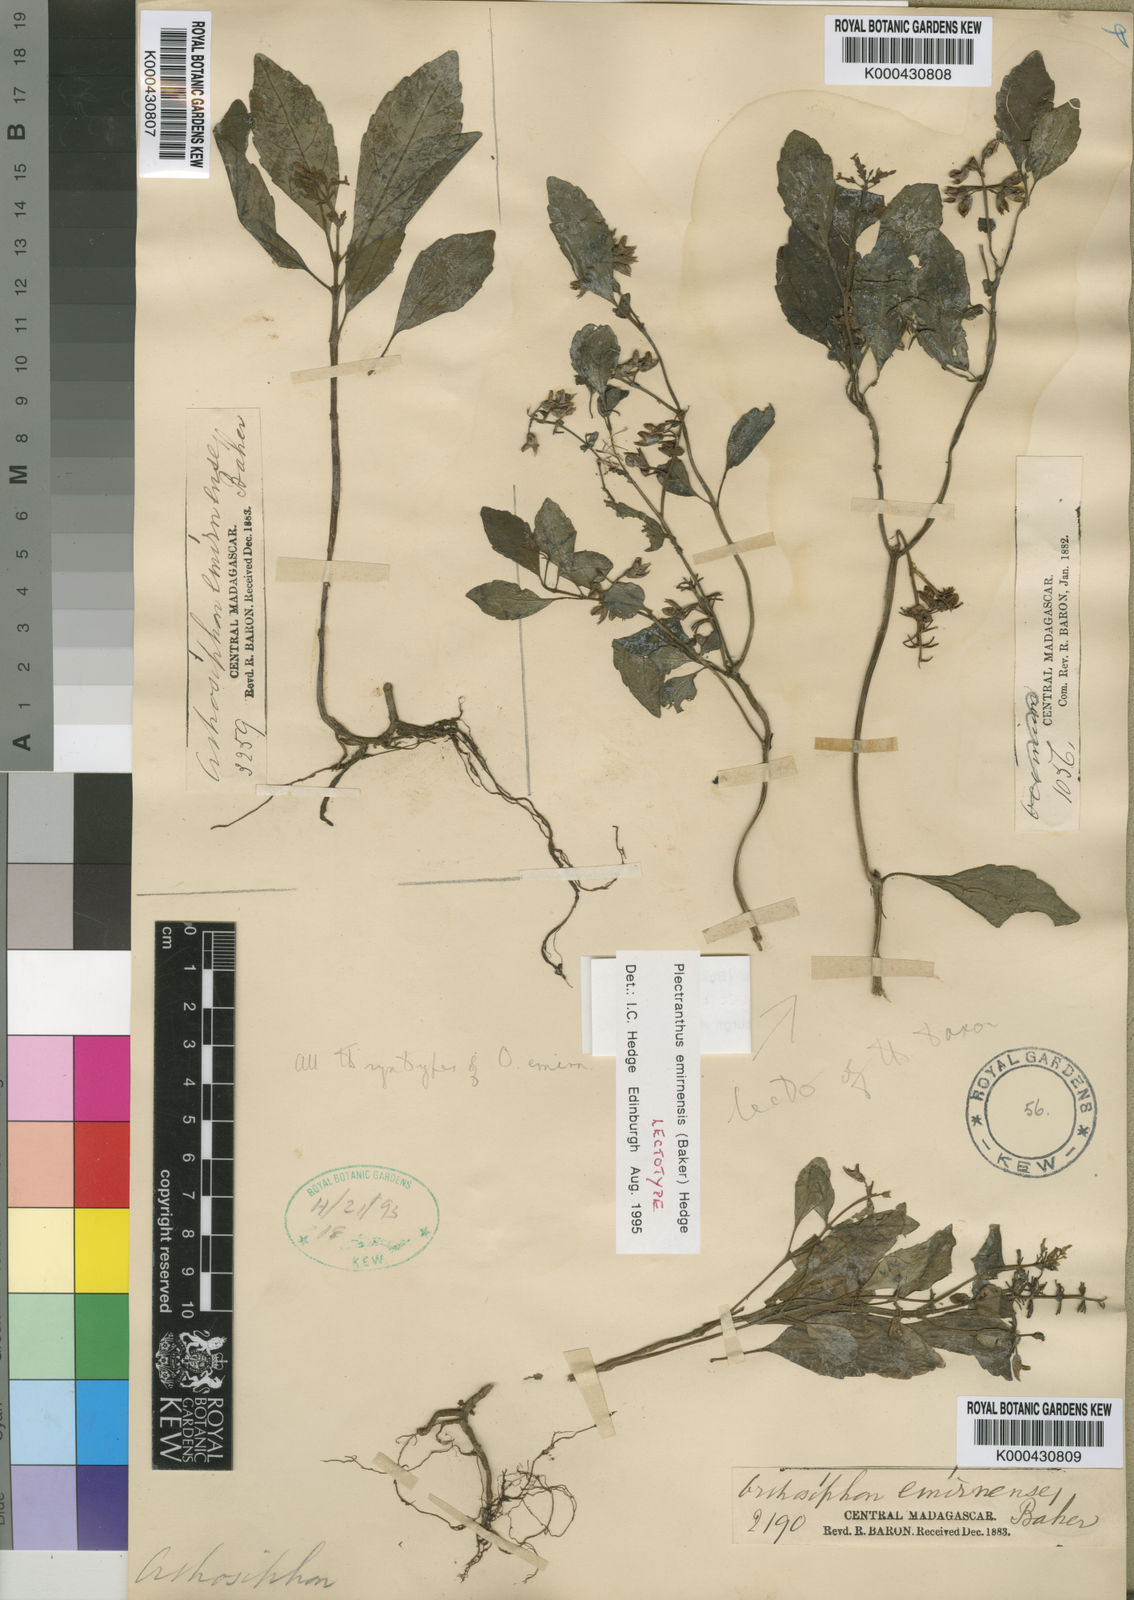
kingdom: Plantae
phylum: Tracheophyta
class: Magnoliopsida
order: Lamiales
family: Lamiaceae
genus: Plectranthus
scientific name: Plectranthus emirnensis
